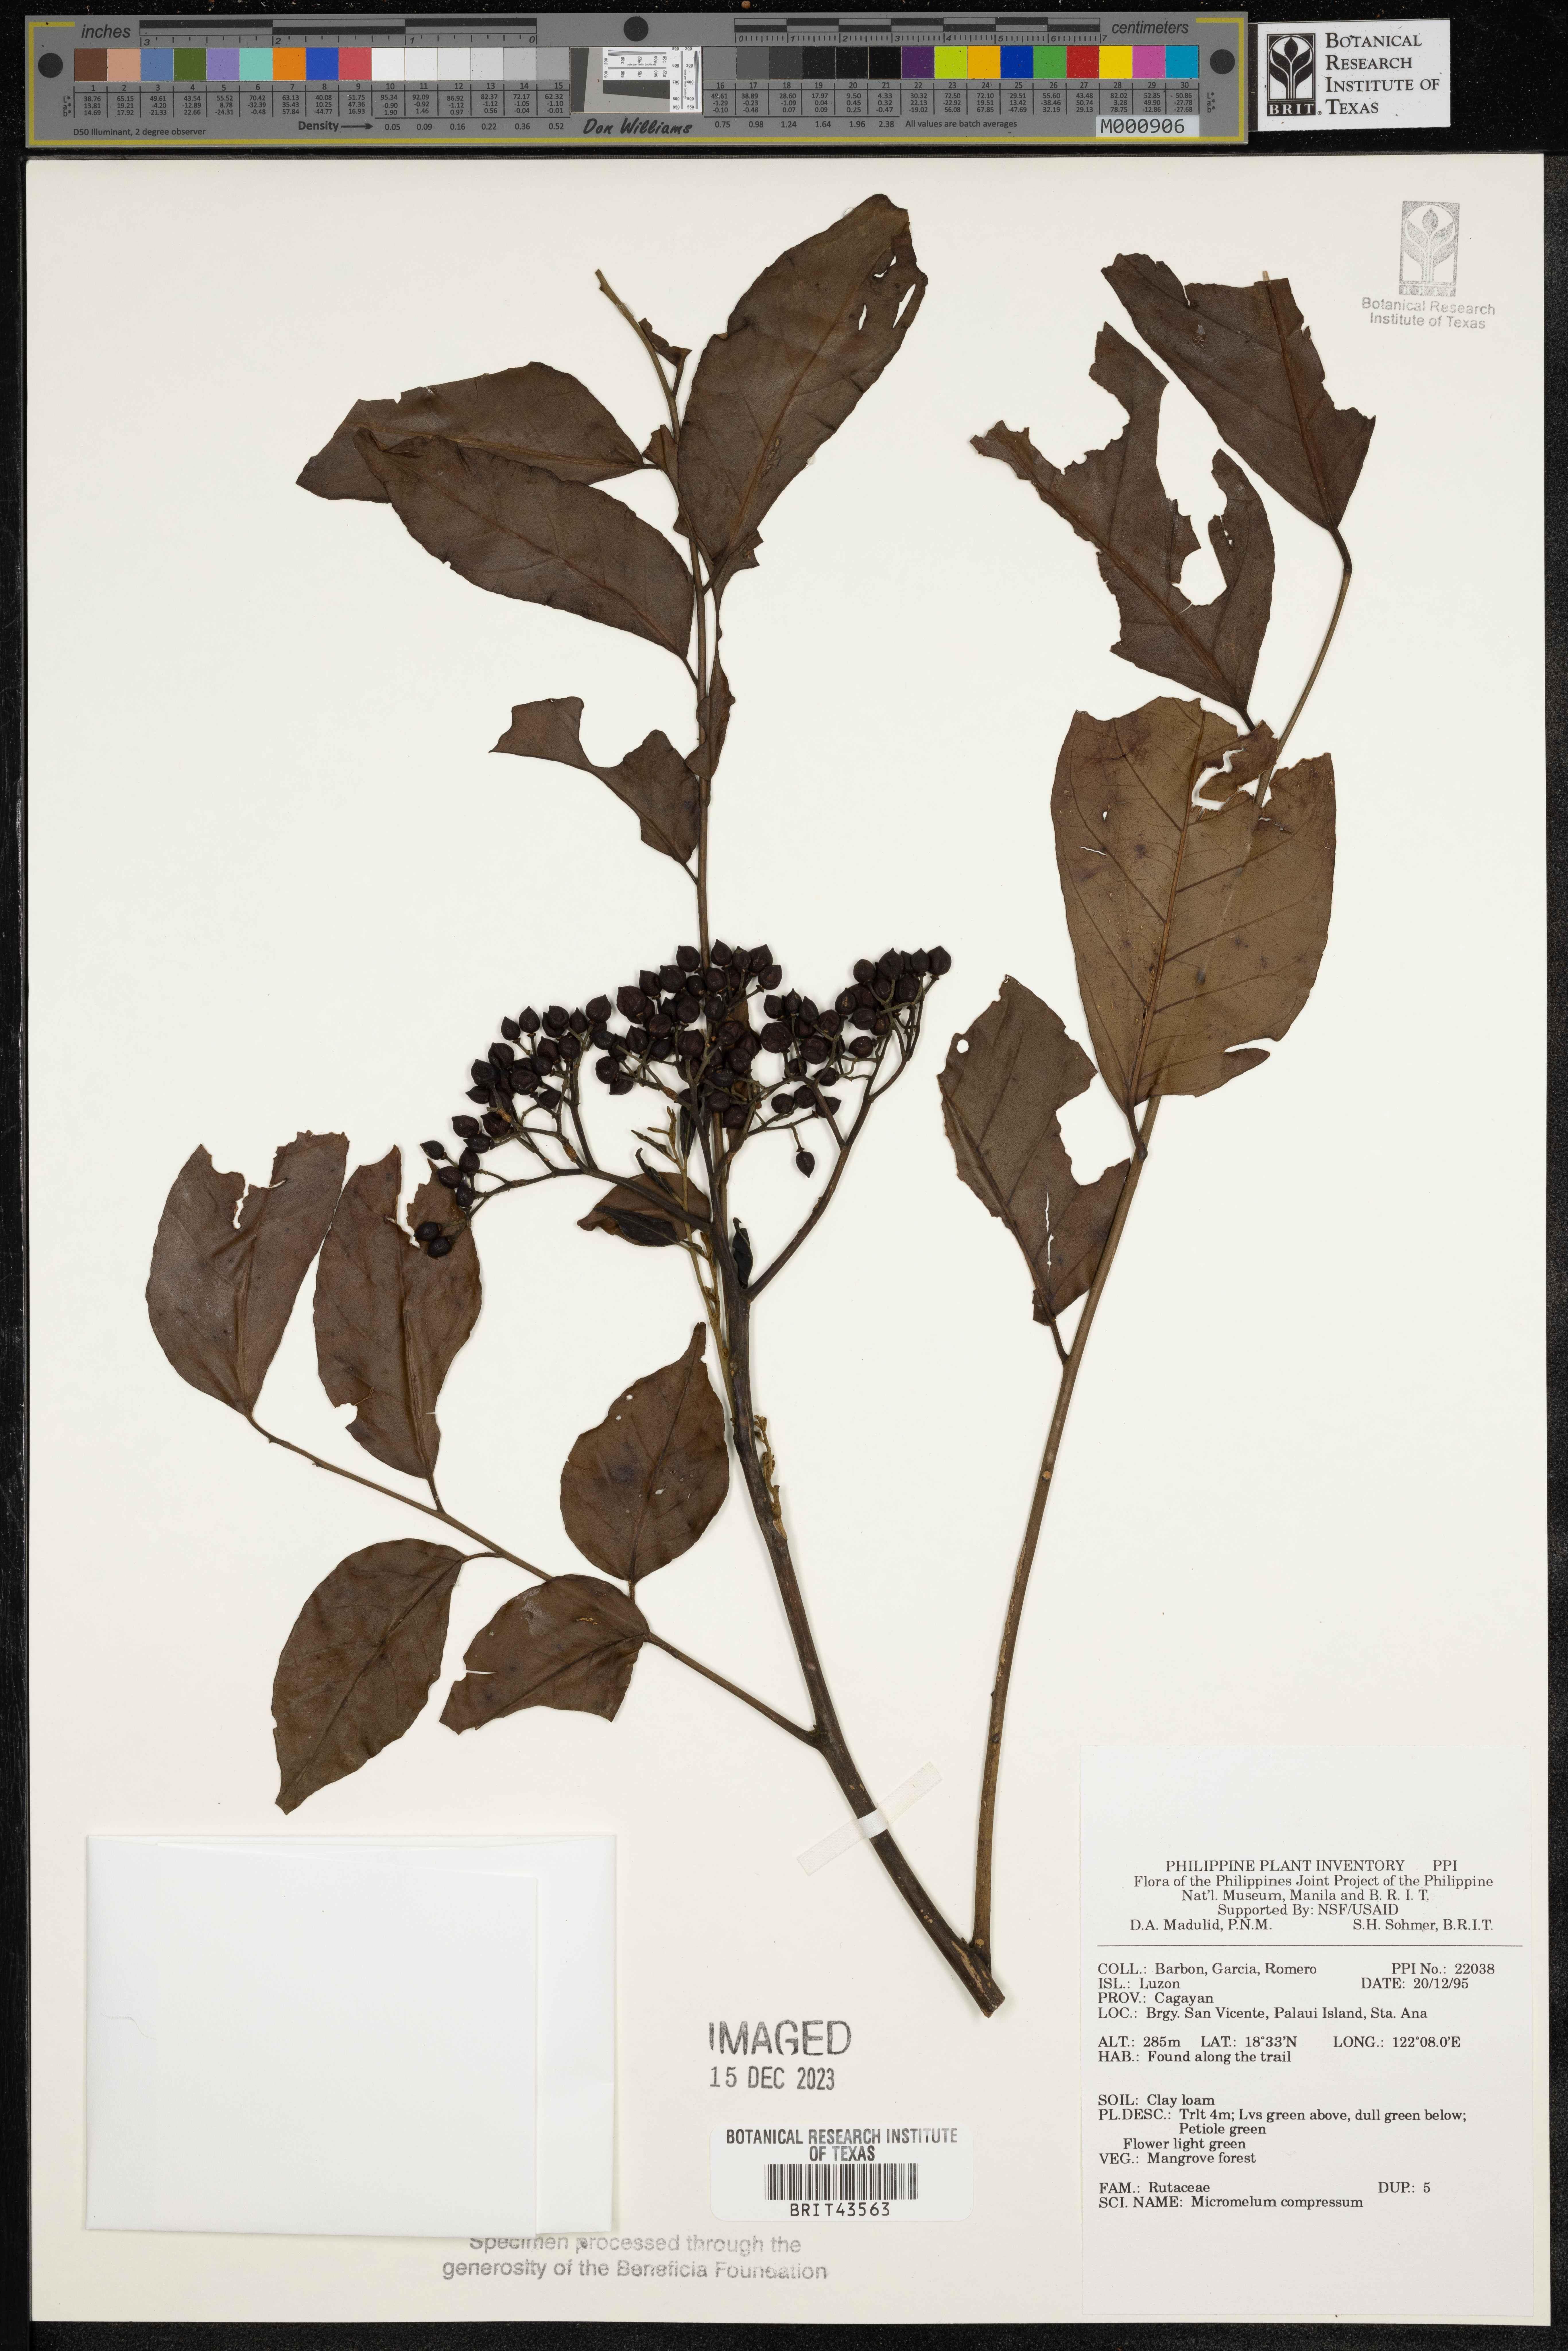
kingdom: Plantae
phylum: Tracheophyta
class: Magnoliopsida
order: Sapindales
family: Rutaceae
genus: Micromelum
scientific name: Micromelum compressum
